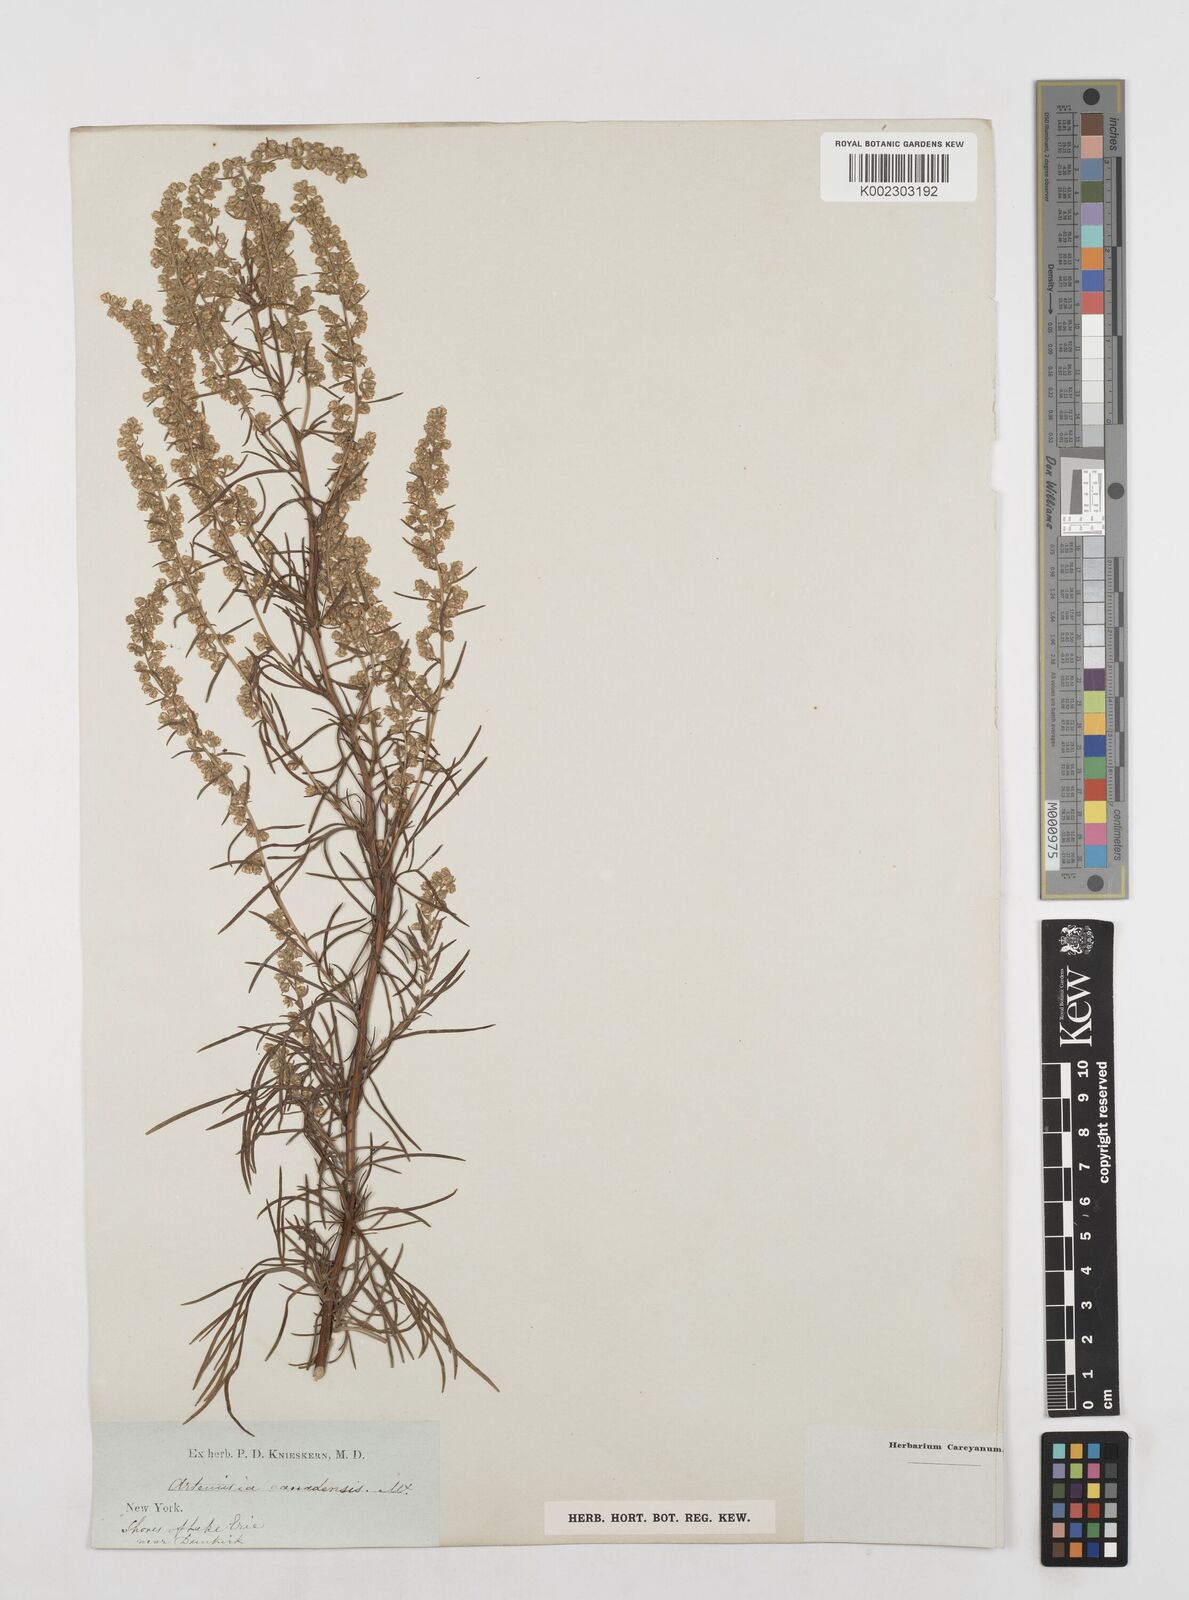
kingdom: Plantae
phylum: Tracheophyta
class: Magnoliopsida
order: Asterales
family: Asteraceae
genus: Artemisia
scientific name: Artemisia campestris
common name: Field wormwood
